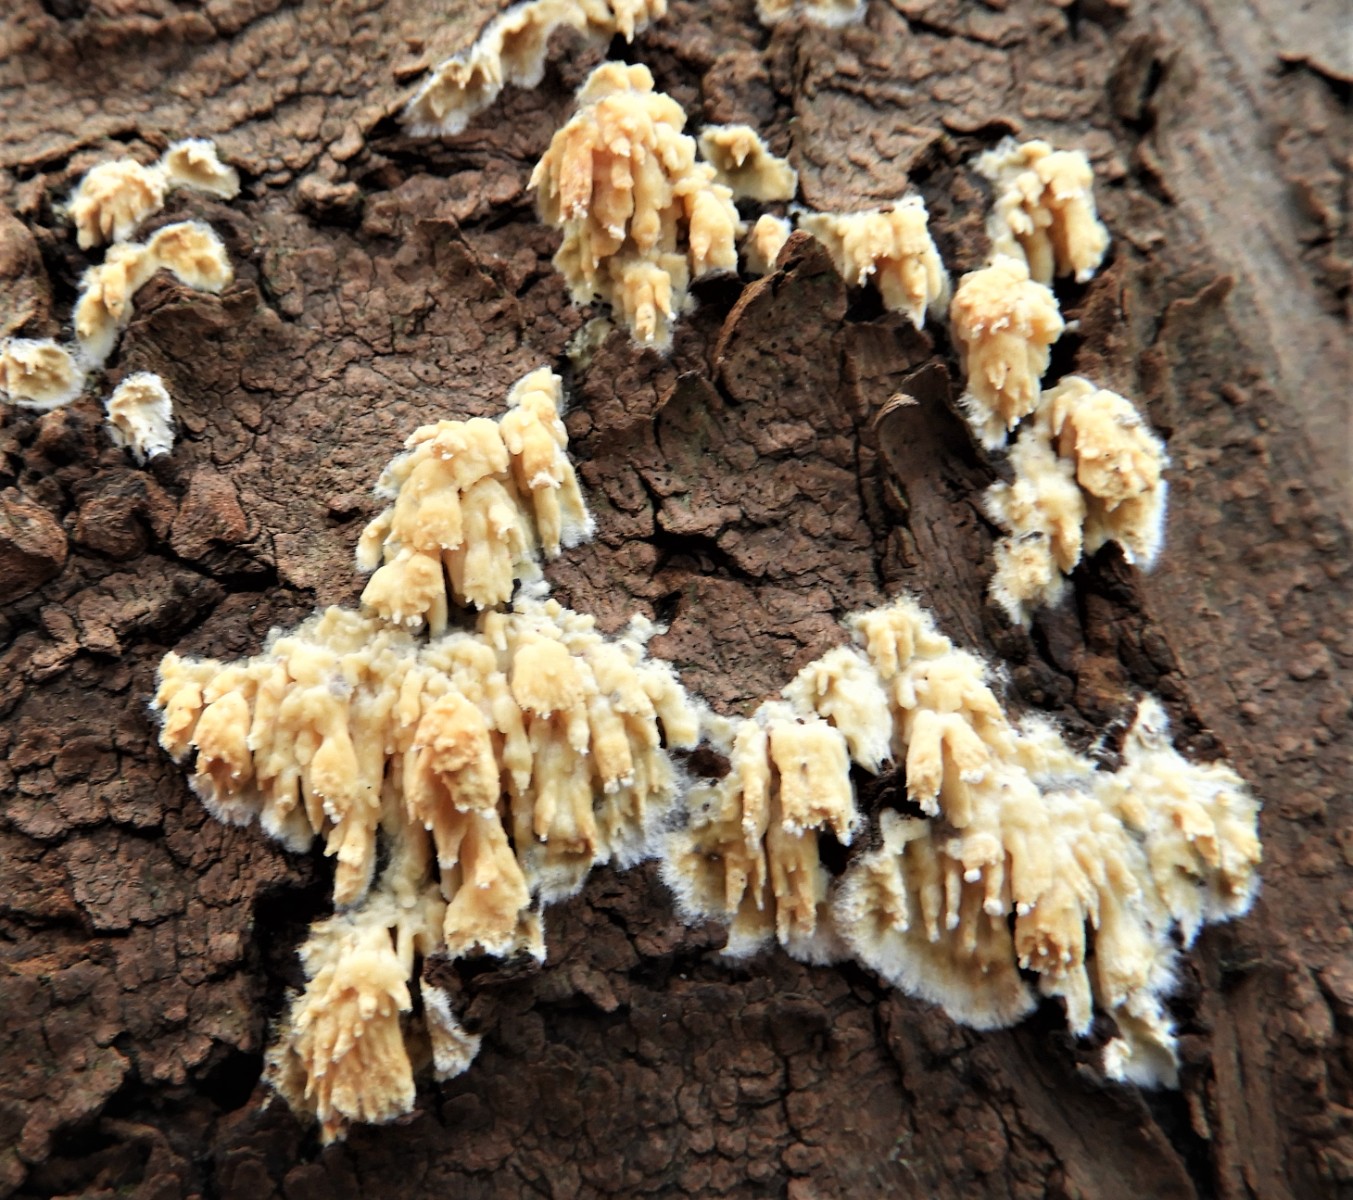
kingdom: Fungi
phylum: Basidiomycota
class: Agaricomycetes
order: Hymenochaetales
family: Schizoporaceae
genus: Xylodon
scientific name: Xylodon radula
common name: grovtandet kalkskind
